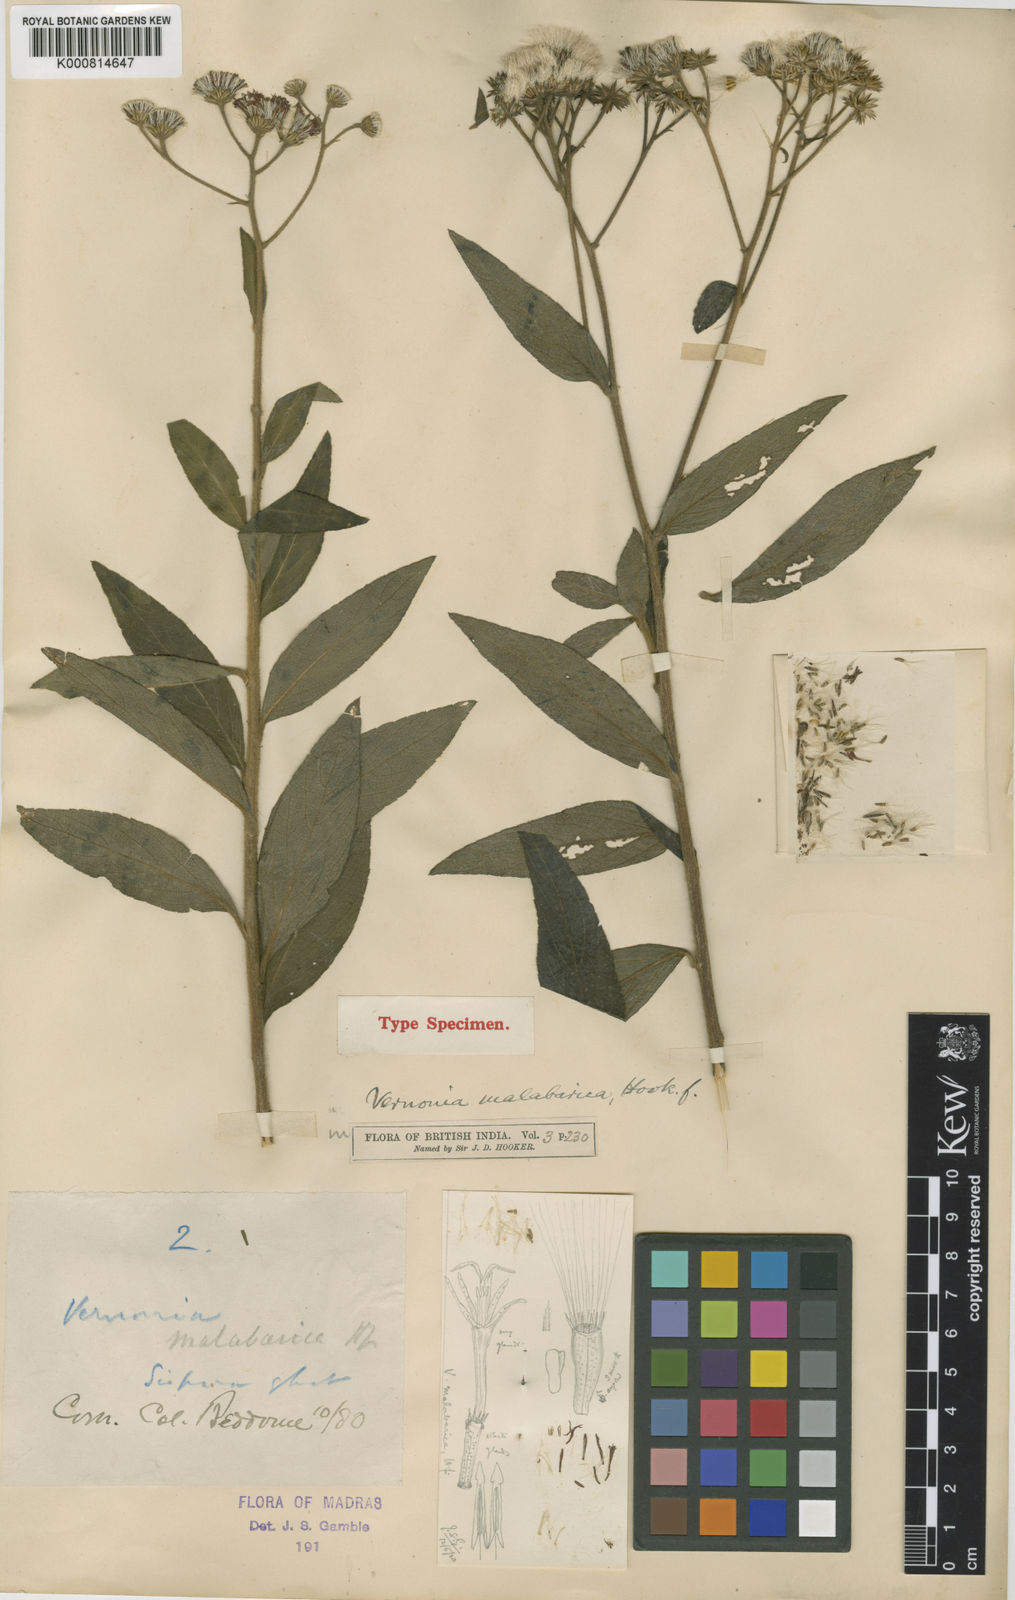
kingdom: Plantae
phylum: Tracheophyta
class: Magnoliopsida
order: Asterales
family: Asteraceae
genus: Uniyala
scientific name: Uniyala malabarica
